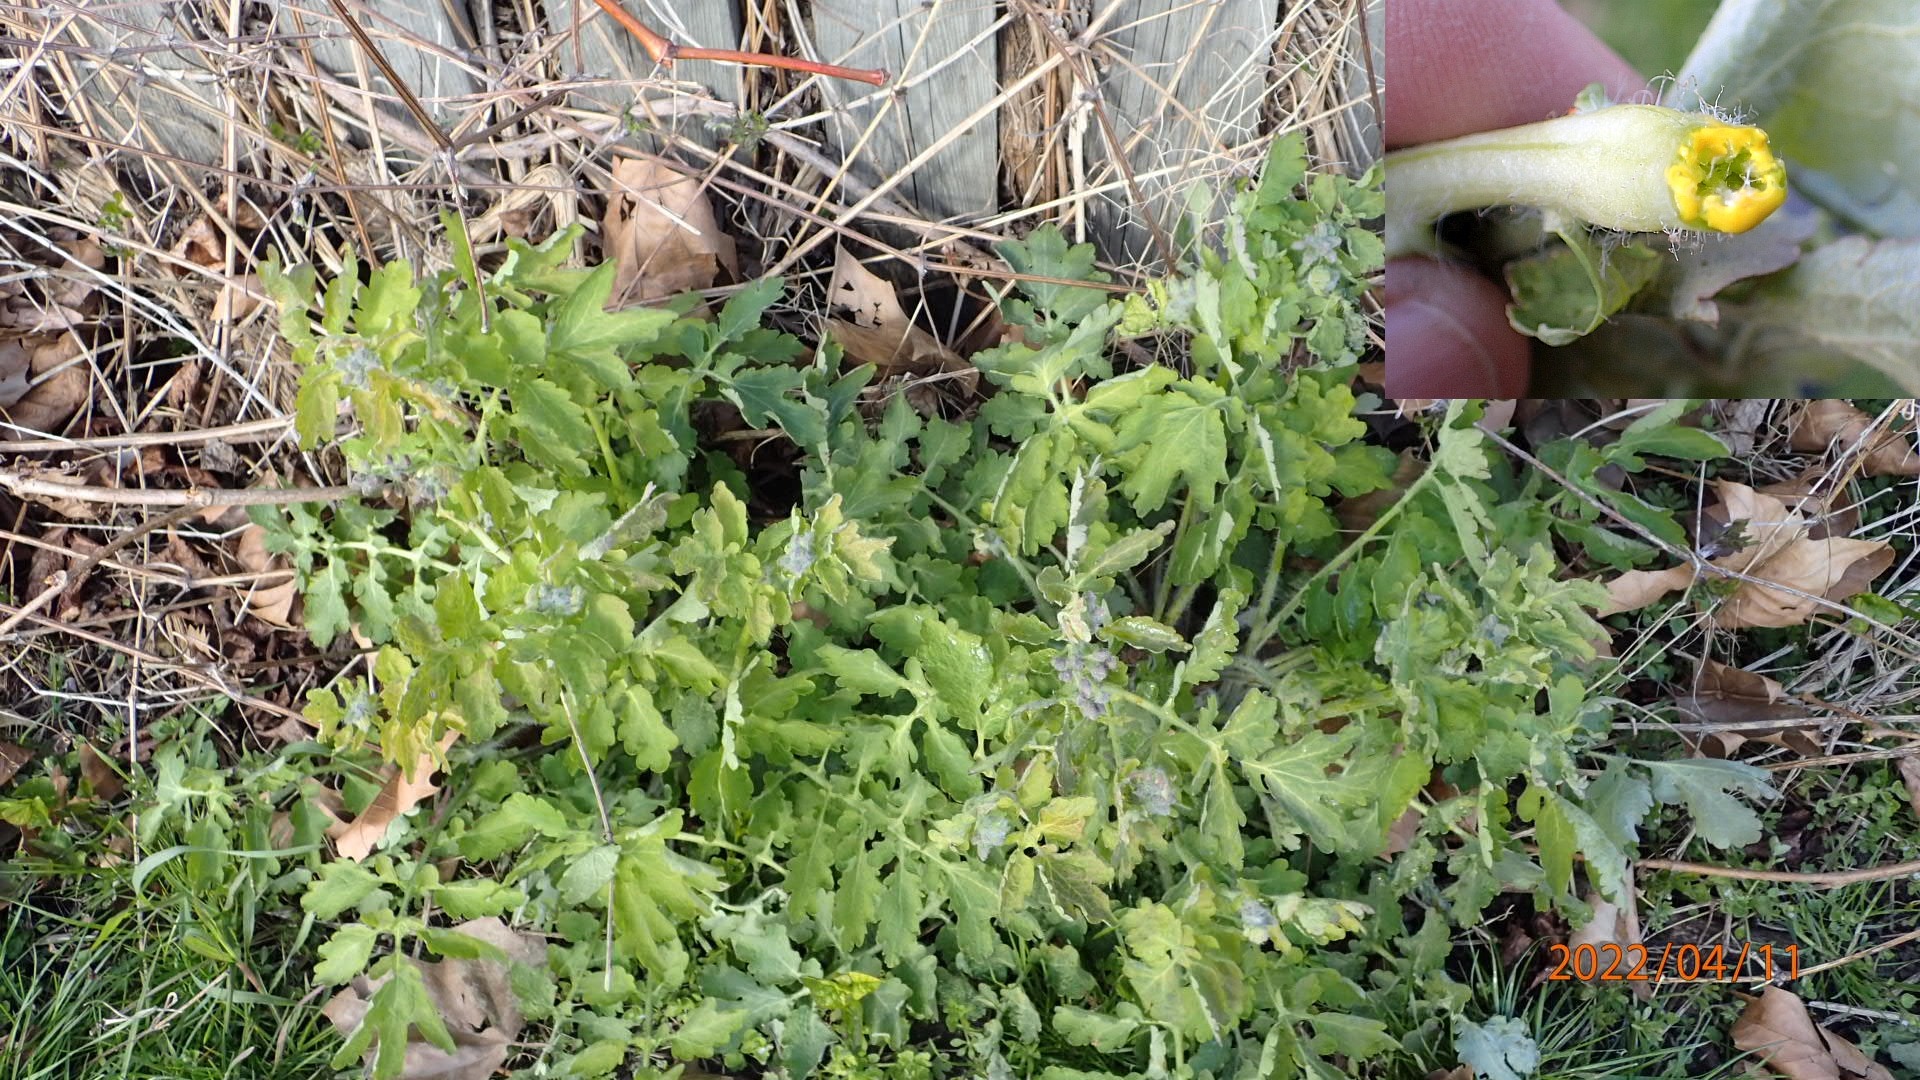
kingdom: Plantae
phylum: Tracheophyta
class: Magnoliopsida
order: Ranunculales
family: Papaveraceae
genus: Chelidonium
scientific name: Chelidonium majus
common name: Svaleurt
